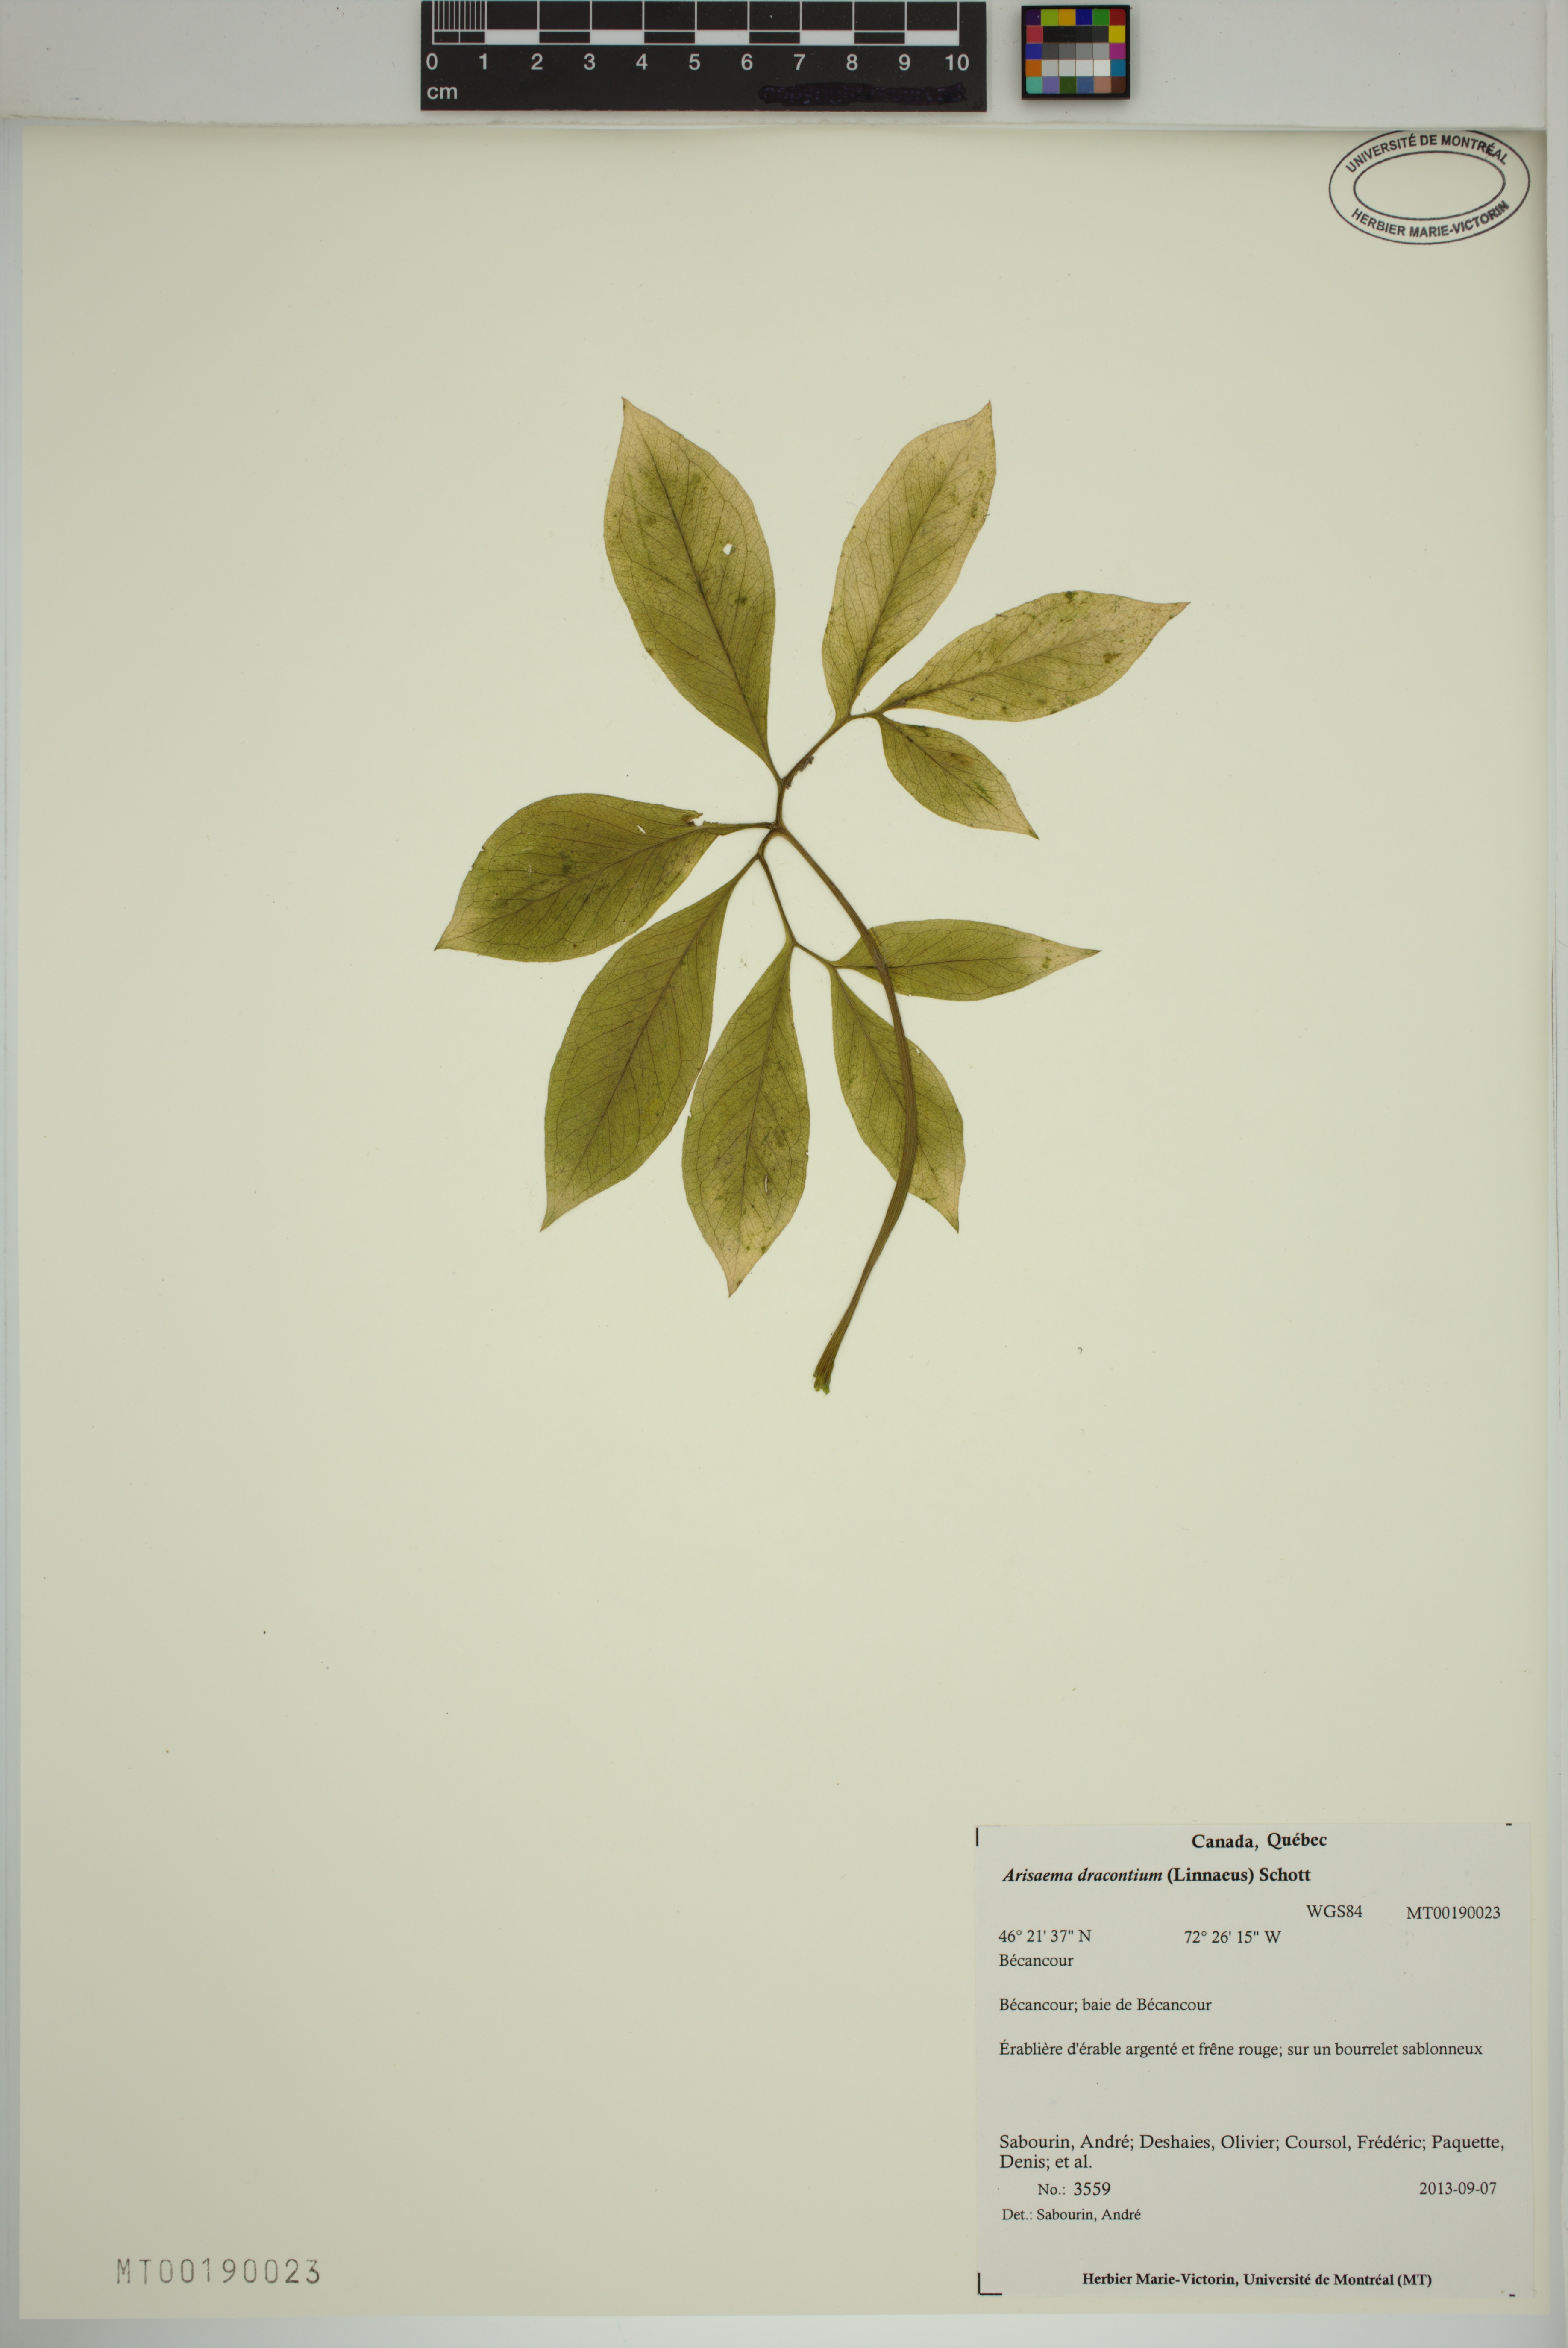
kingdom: Plantae
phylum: Tracheophyta
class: Liliopsida
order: Alismatales
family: Araceae
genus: Arisaema
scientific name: Arisaema dracontium
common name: Dragon-arum
